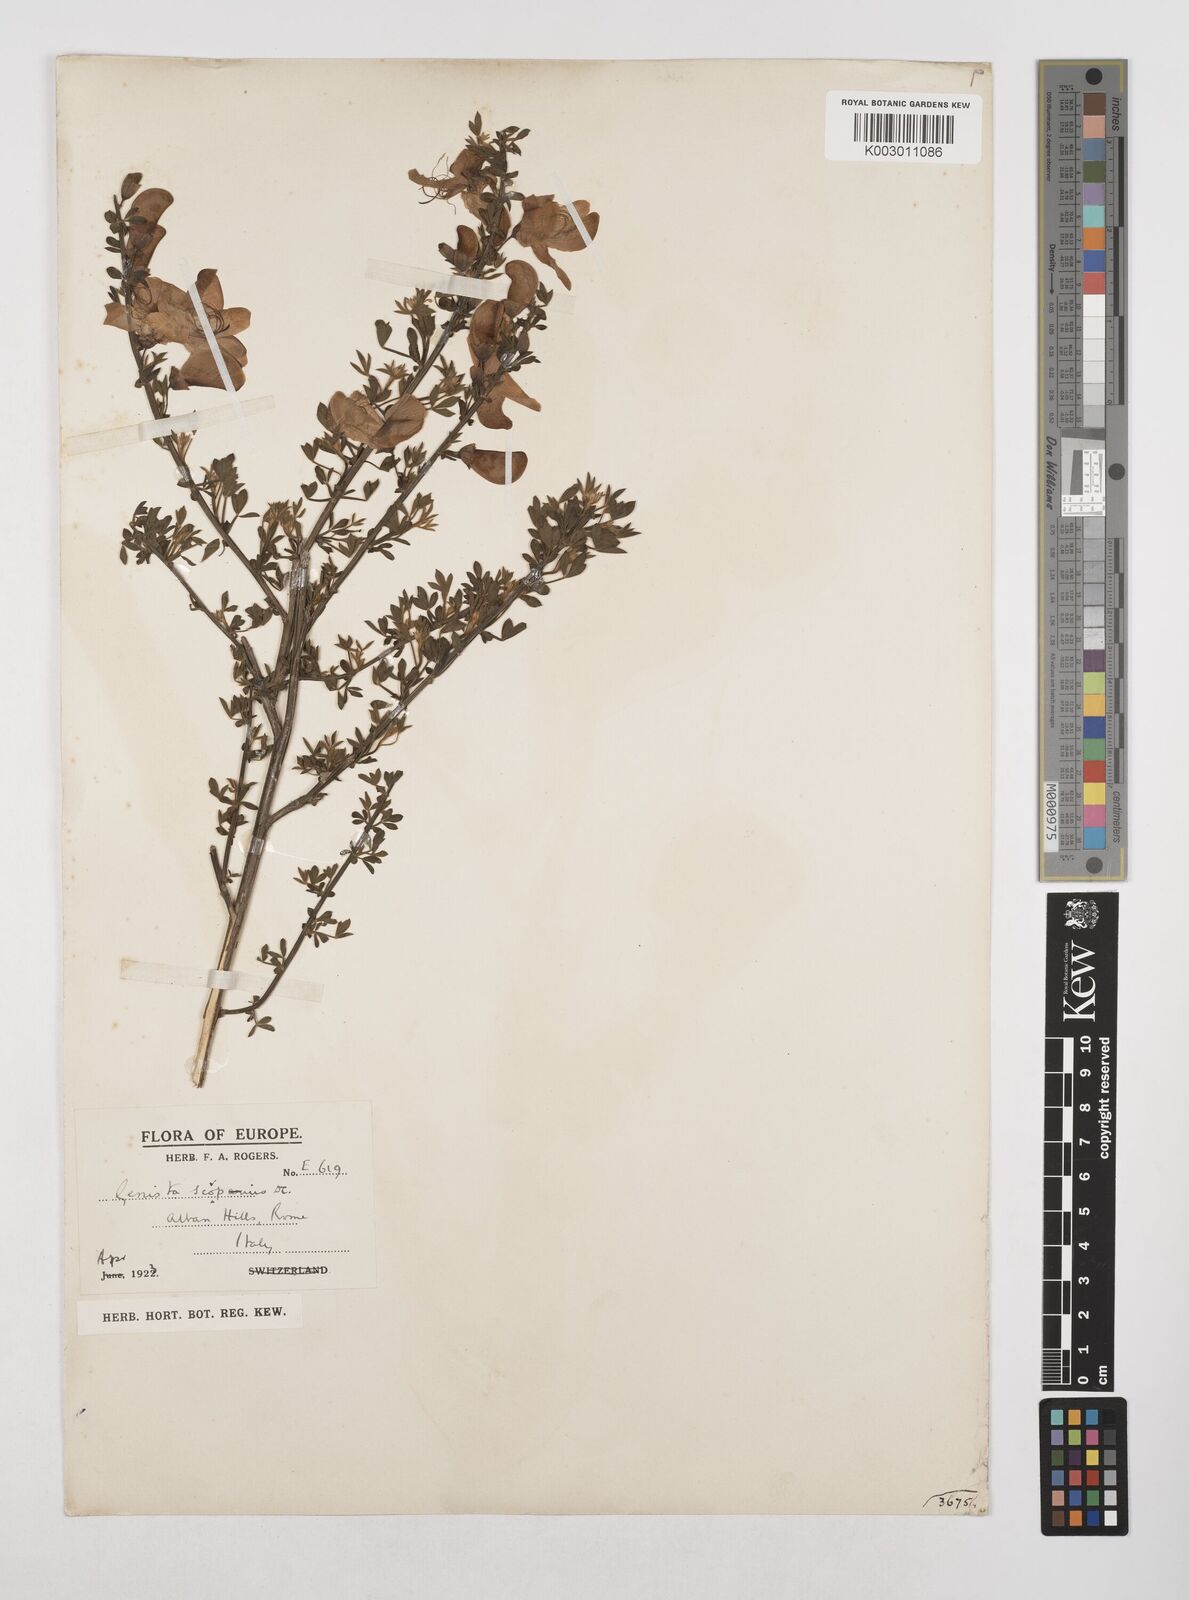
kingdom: Plantae
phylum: Tracheophyta
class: Magnoliopsida
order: Fabales
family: Fabaceae
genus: Cytisus
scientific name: Cytisus scoparius
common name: Scotch broom
